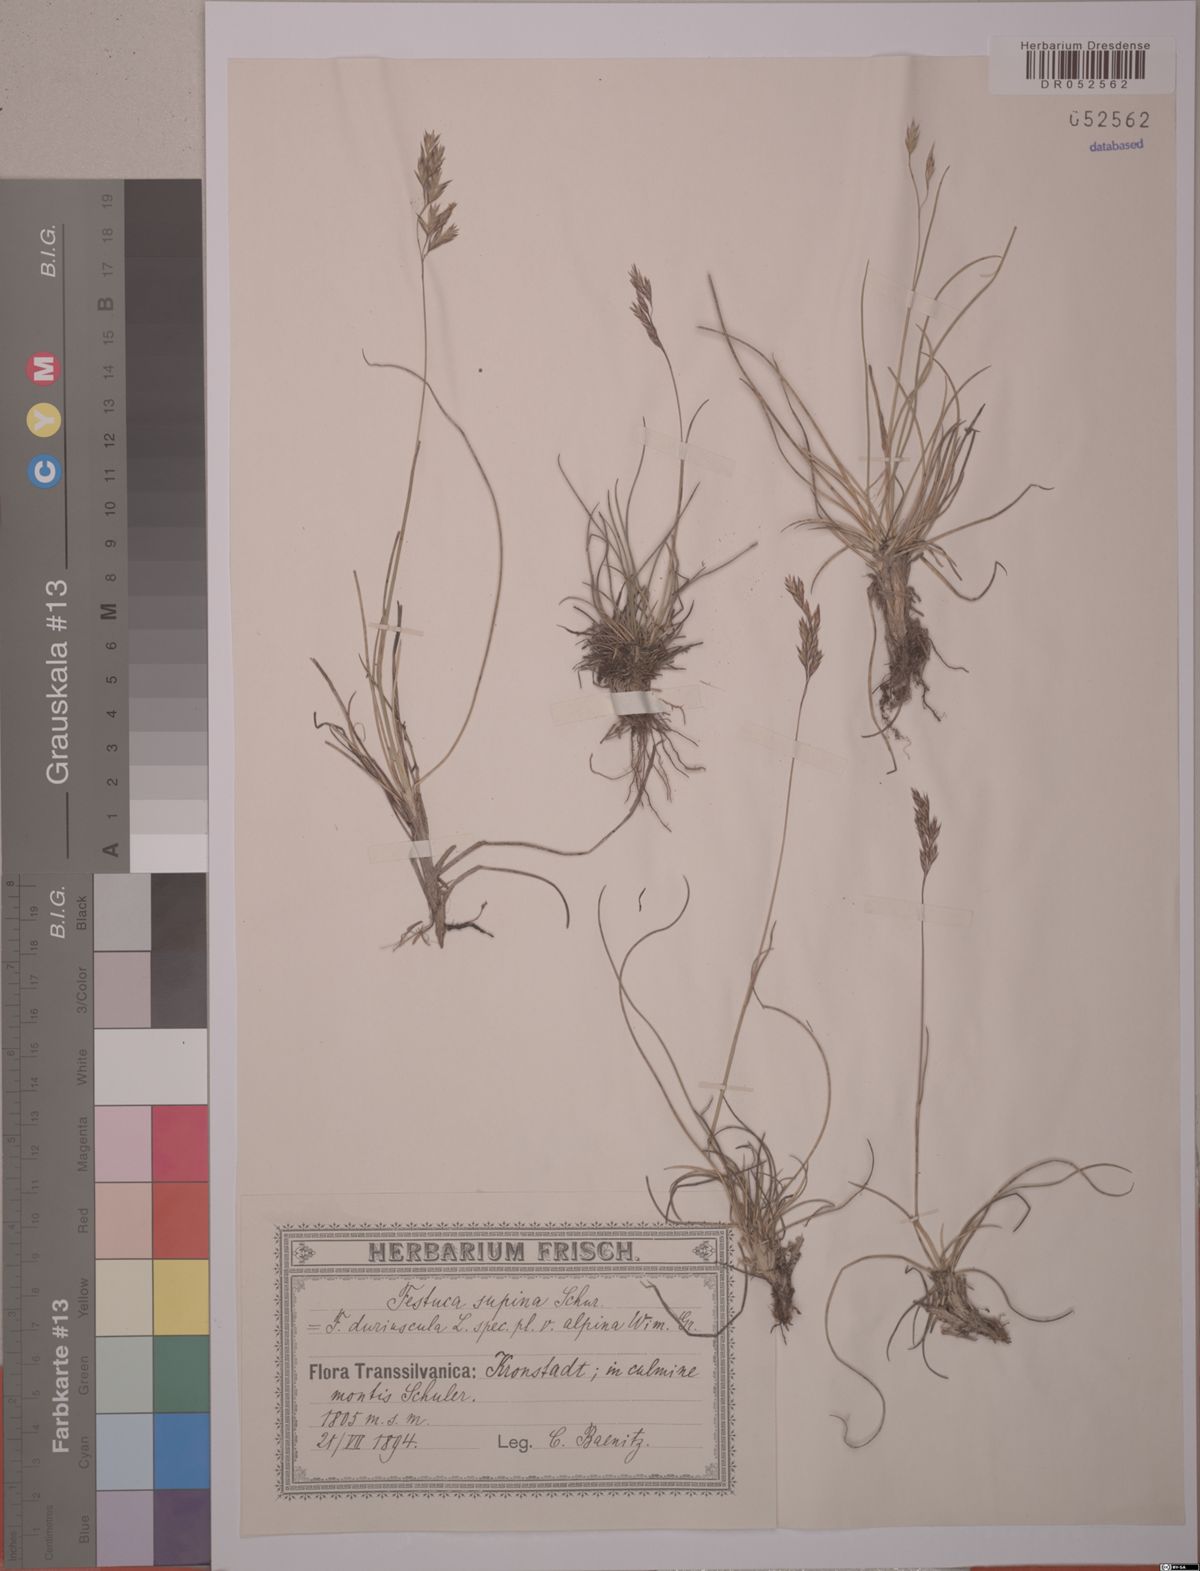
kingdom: Plantae
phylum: Tracheophyta
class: Liliopsida
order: Poales
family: Poaceae
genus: Festuca
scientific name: Festuca airoides
